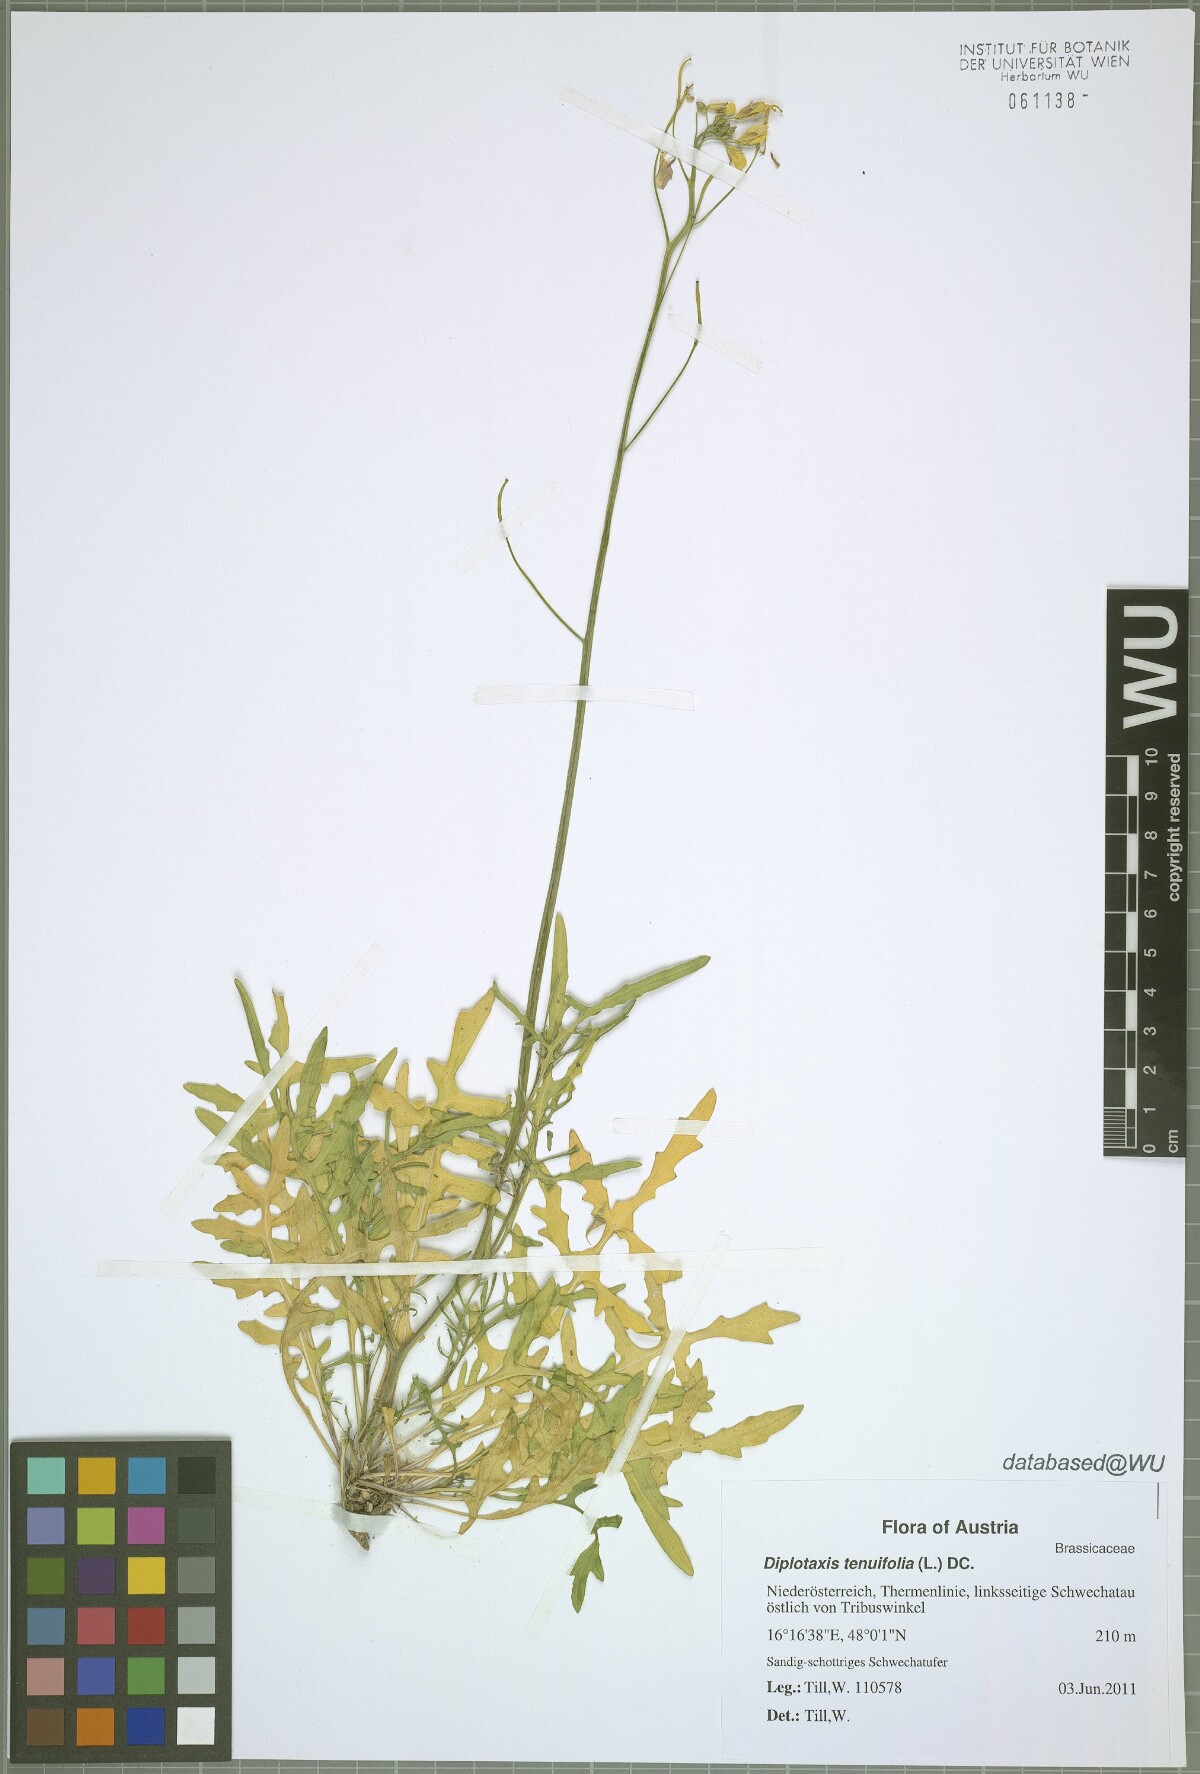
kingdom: Plantae
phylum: Tracheophyta
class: Magnoliopsida
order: Brassicales
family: Brassicaceae
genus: Diplotaxis
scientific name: Diplotaxis tenuifolia
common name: Perennial wall-rocket
